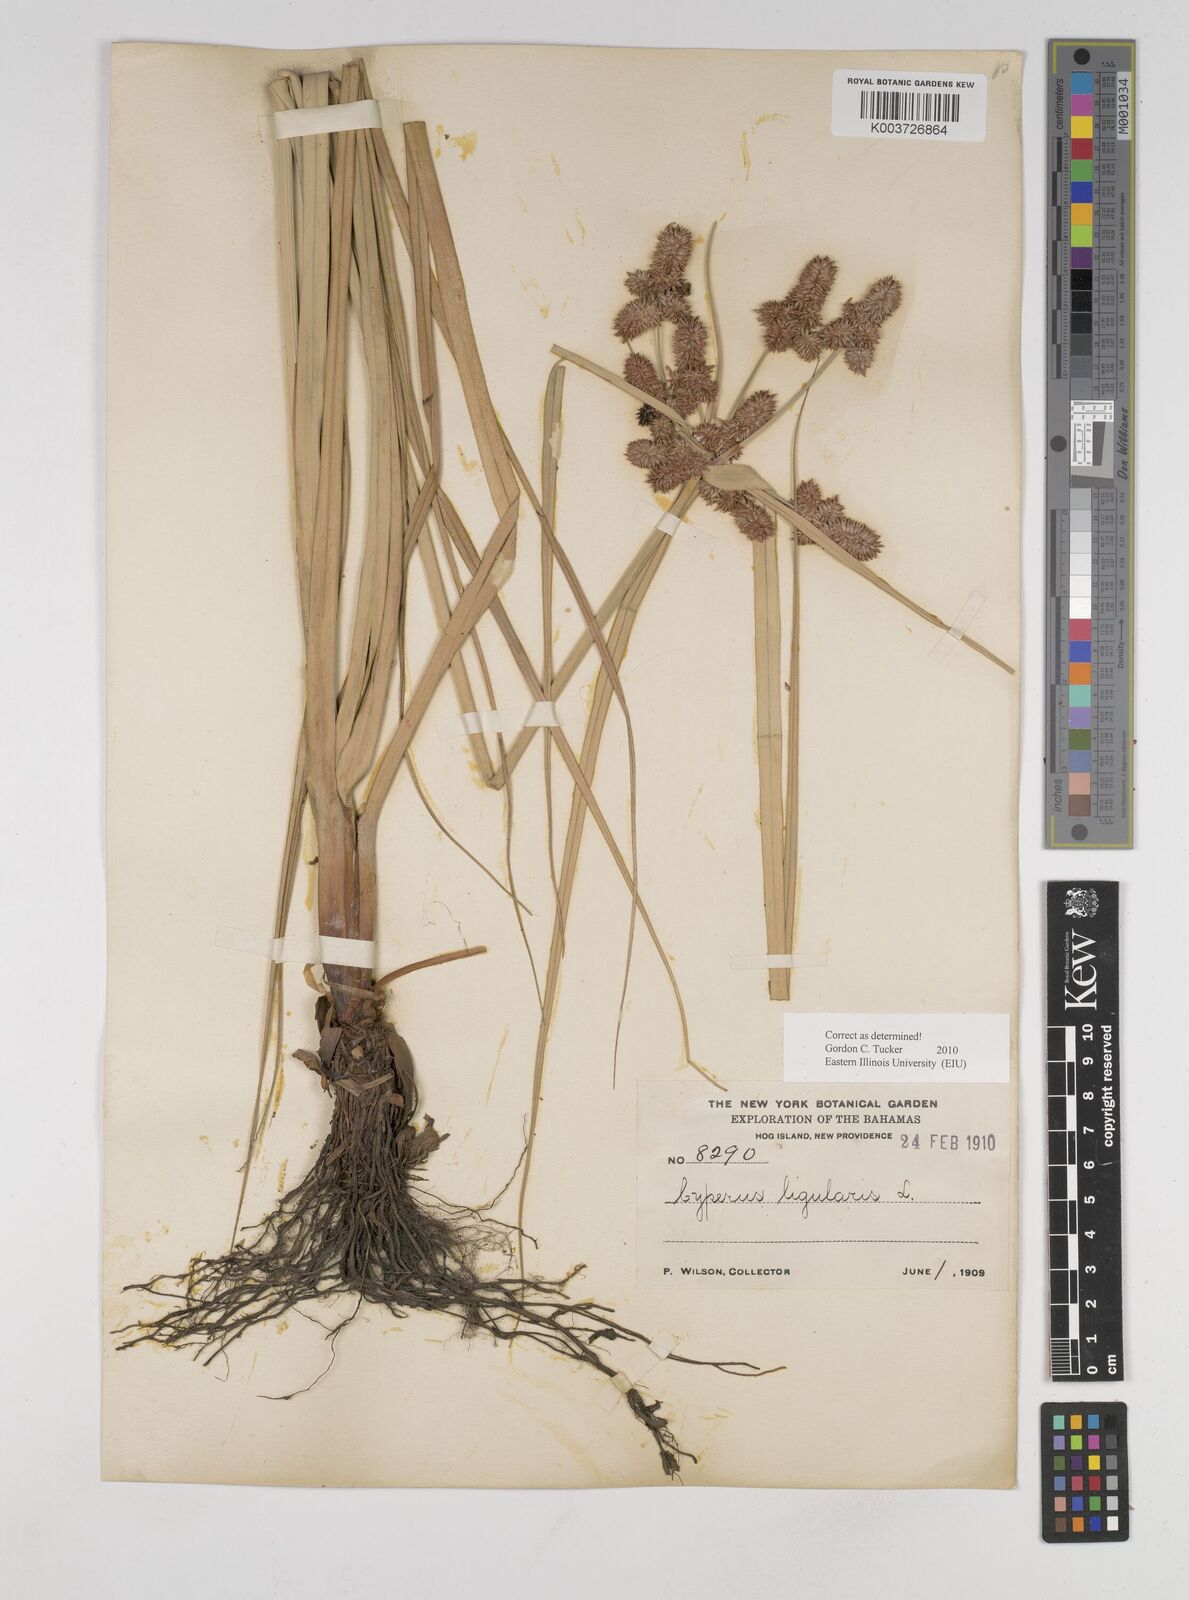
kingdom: Plantae
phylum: Tracheophyta
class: Liliopsida
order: Poales
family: Cyperaceae
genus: Cyperus
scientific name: Cyperus ligularis
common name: Swamp flat sedge
